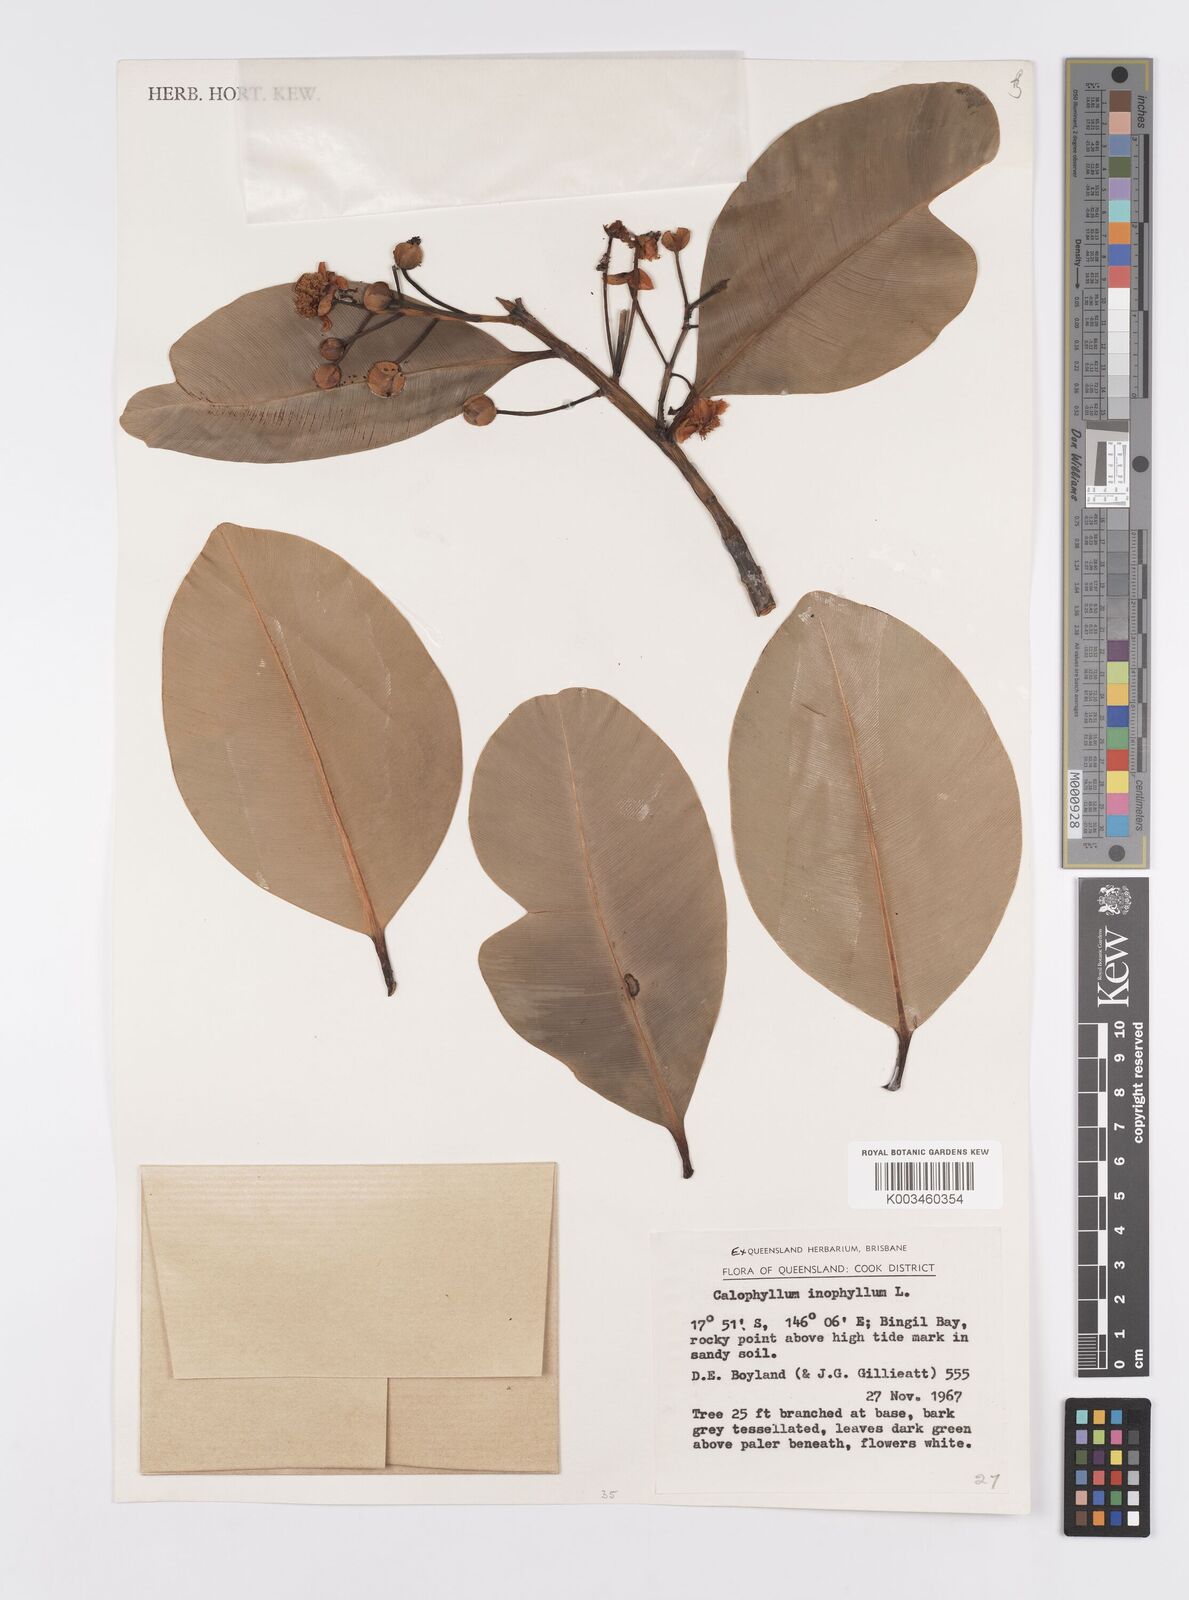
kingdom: Plantae
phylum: Tracheophyta
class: Magnoliopsida
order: Malpighiales
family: Calophyllaceae
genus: Calophyllum
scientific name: Calophyllum inophyllum
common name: Alexandrian laurel
